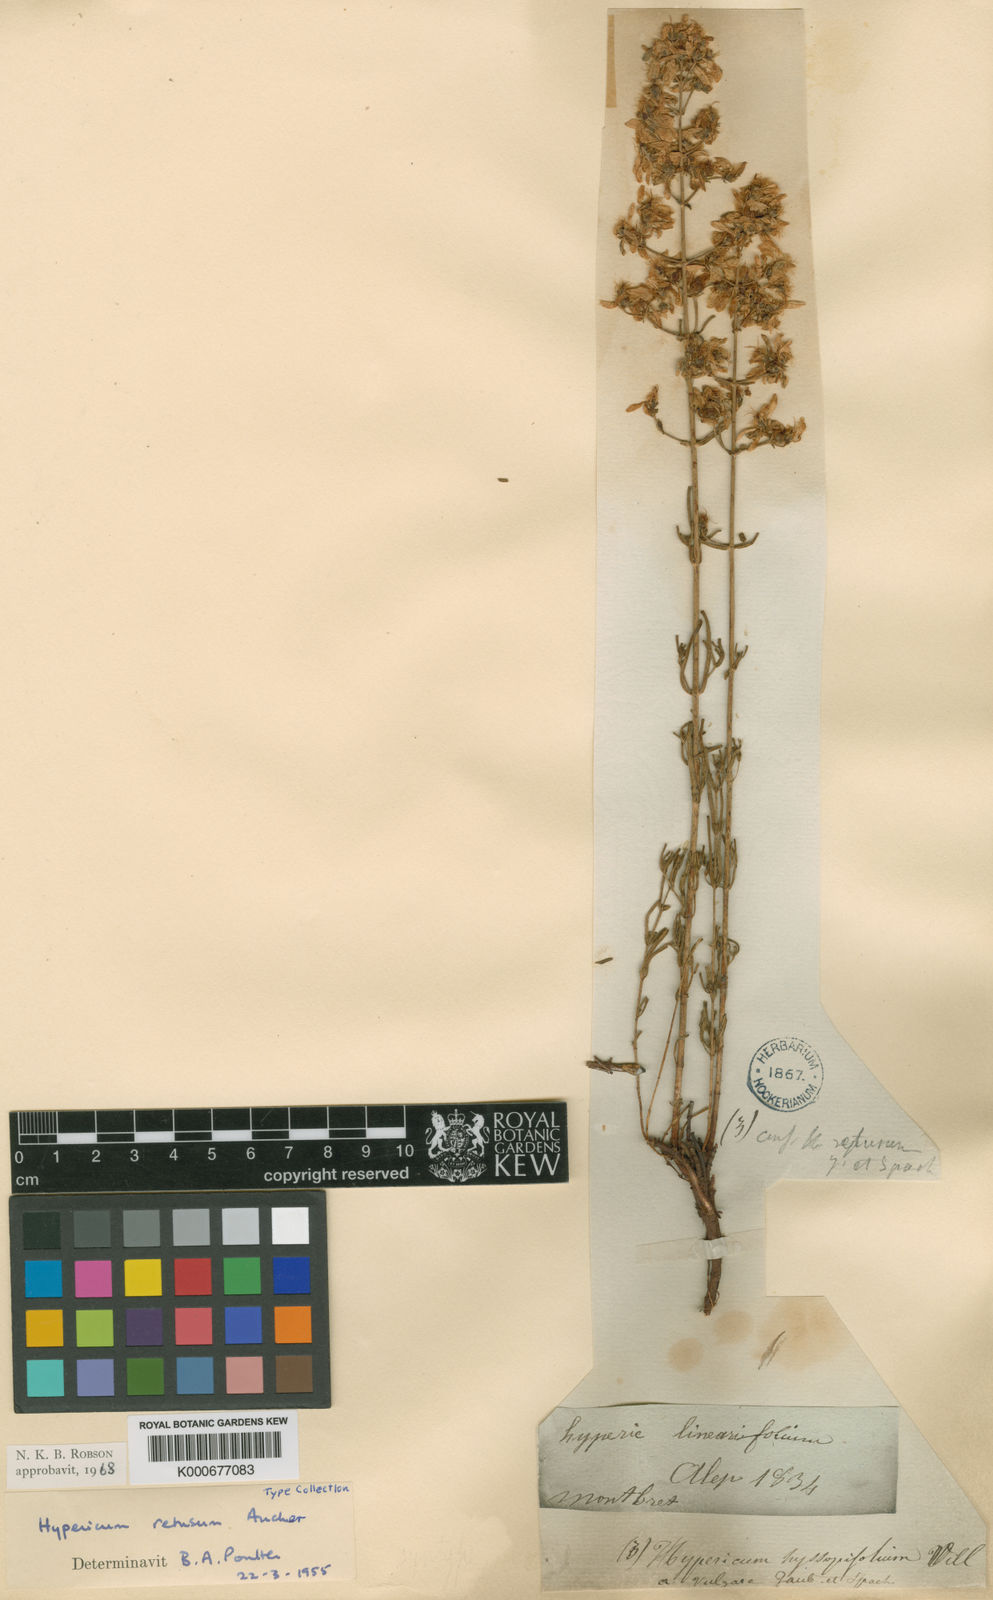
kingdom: Plantae
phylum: Tracheophyta
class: Magnoliopsida
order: Malpighiales
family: Hypericaceae
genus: Hypericum
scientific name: Hypericum
